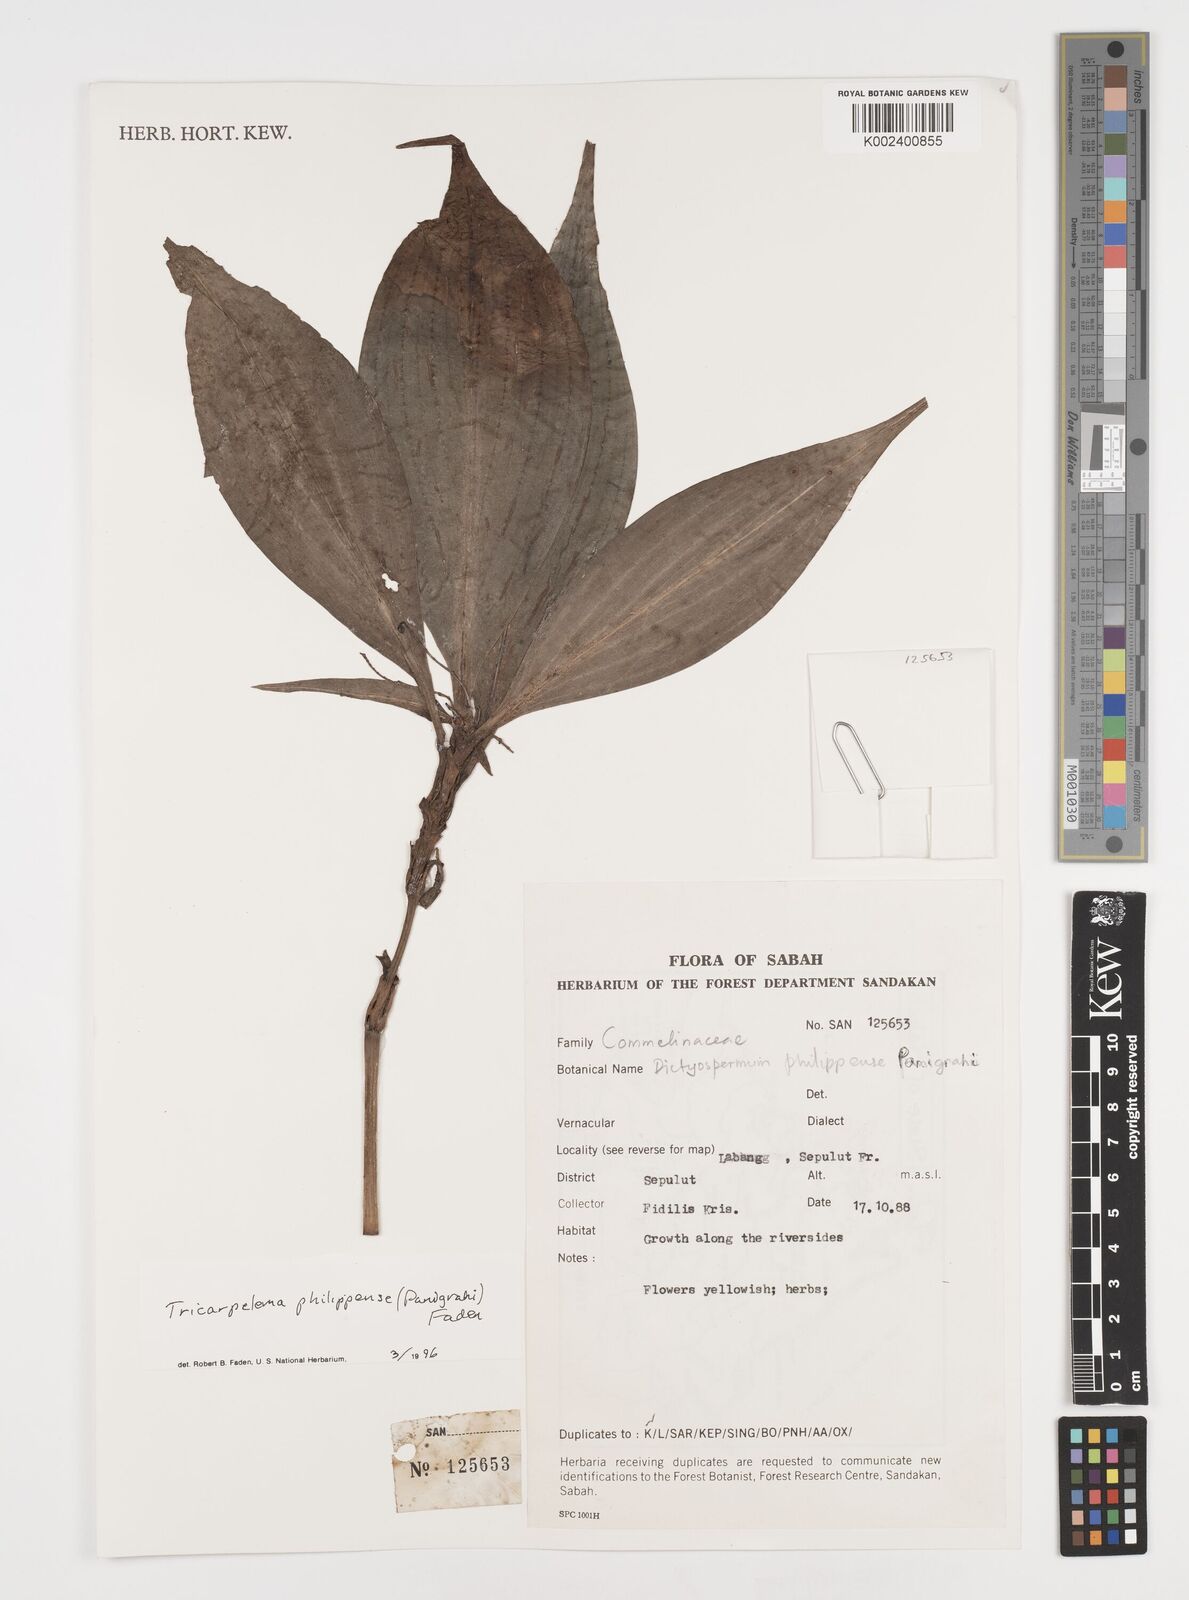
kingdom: Plantae
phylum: Tracheophyta
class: Liliopsida
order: Commelinales
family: Commelinaceae
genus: Tricarpelema
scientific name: Tricarpelema philippense
